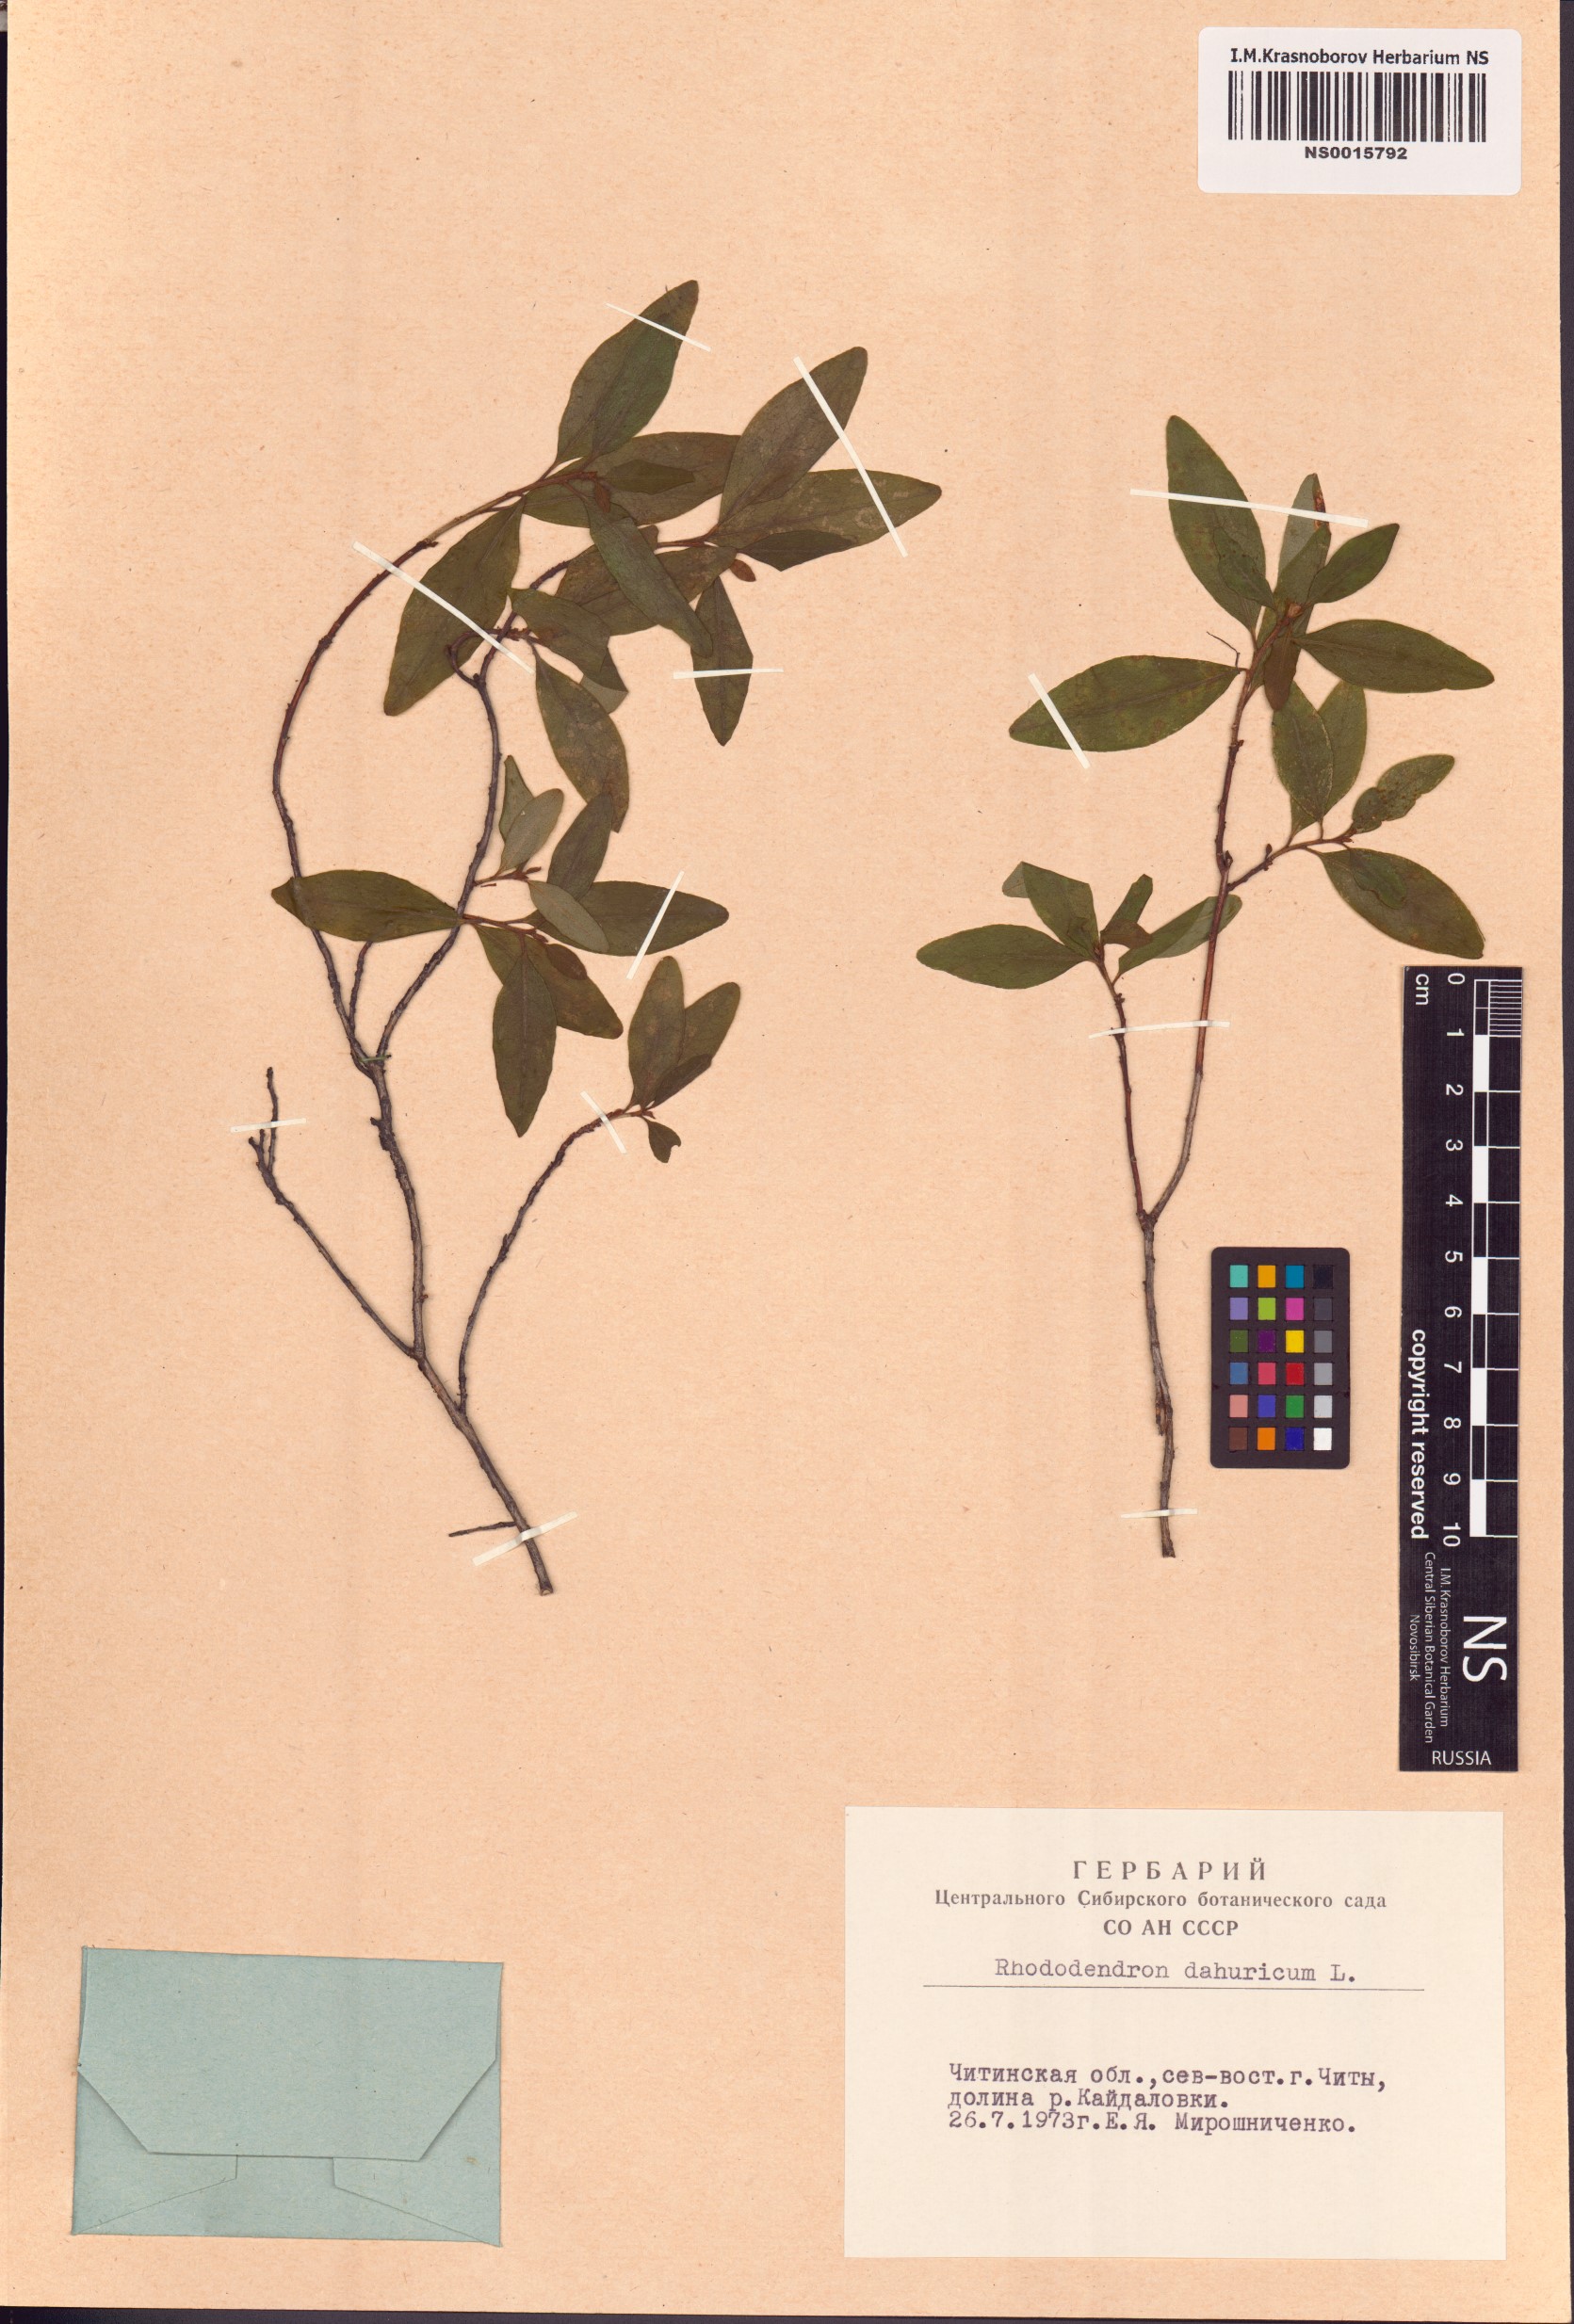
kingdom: Plantae
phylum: Tracheophyta
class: Magnoliopsida
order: Ericales
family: Ericaceae
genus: Rhododendron
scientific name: Rhododendron dauricum
